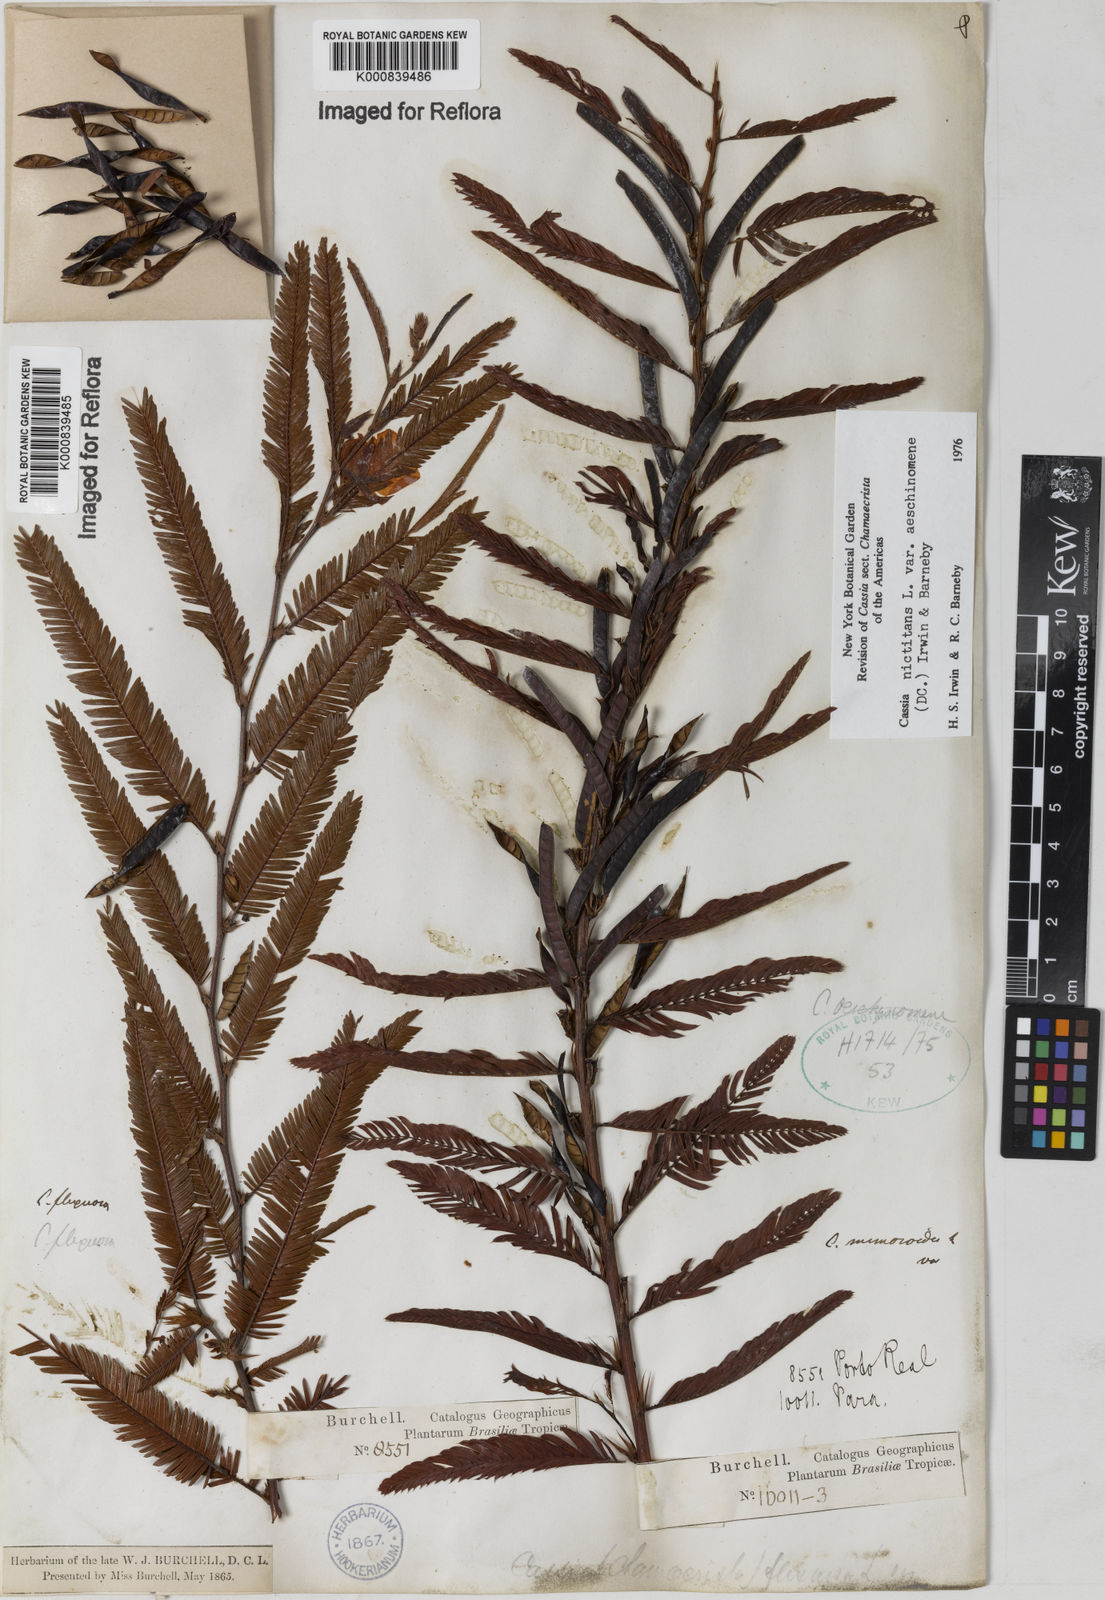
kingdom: Plantae
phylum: Tracheophyta
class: Magnoliopsida
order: Fabales
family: Fabaceae
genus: Chamaecrista
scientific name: Chamaecrista nictitans
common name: Sensitive cassia
